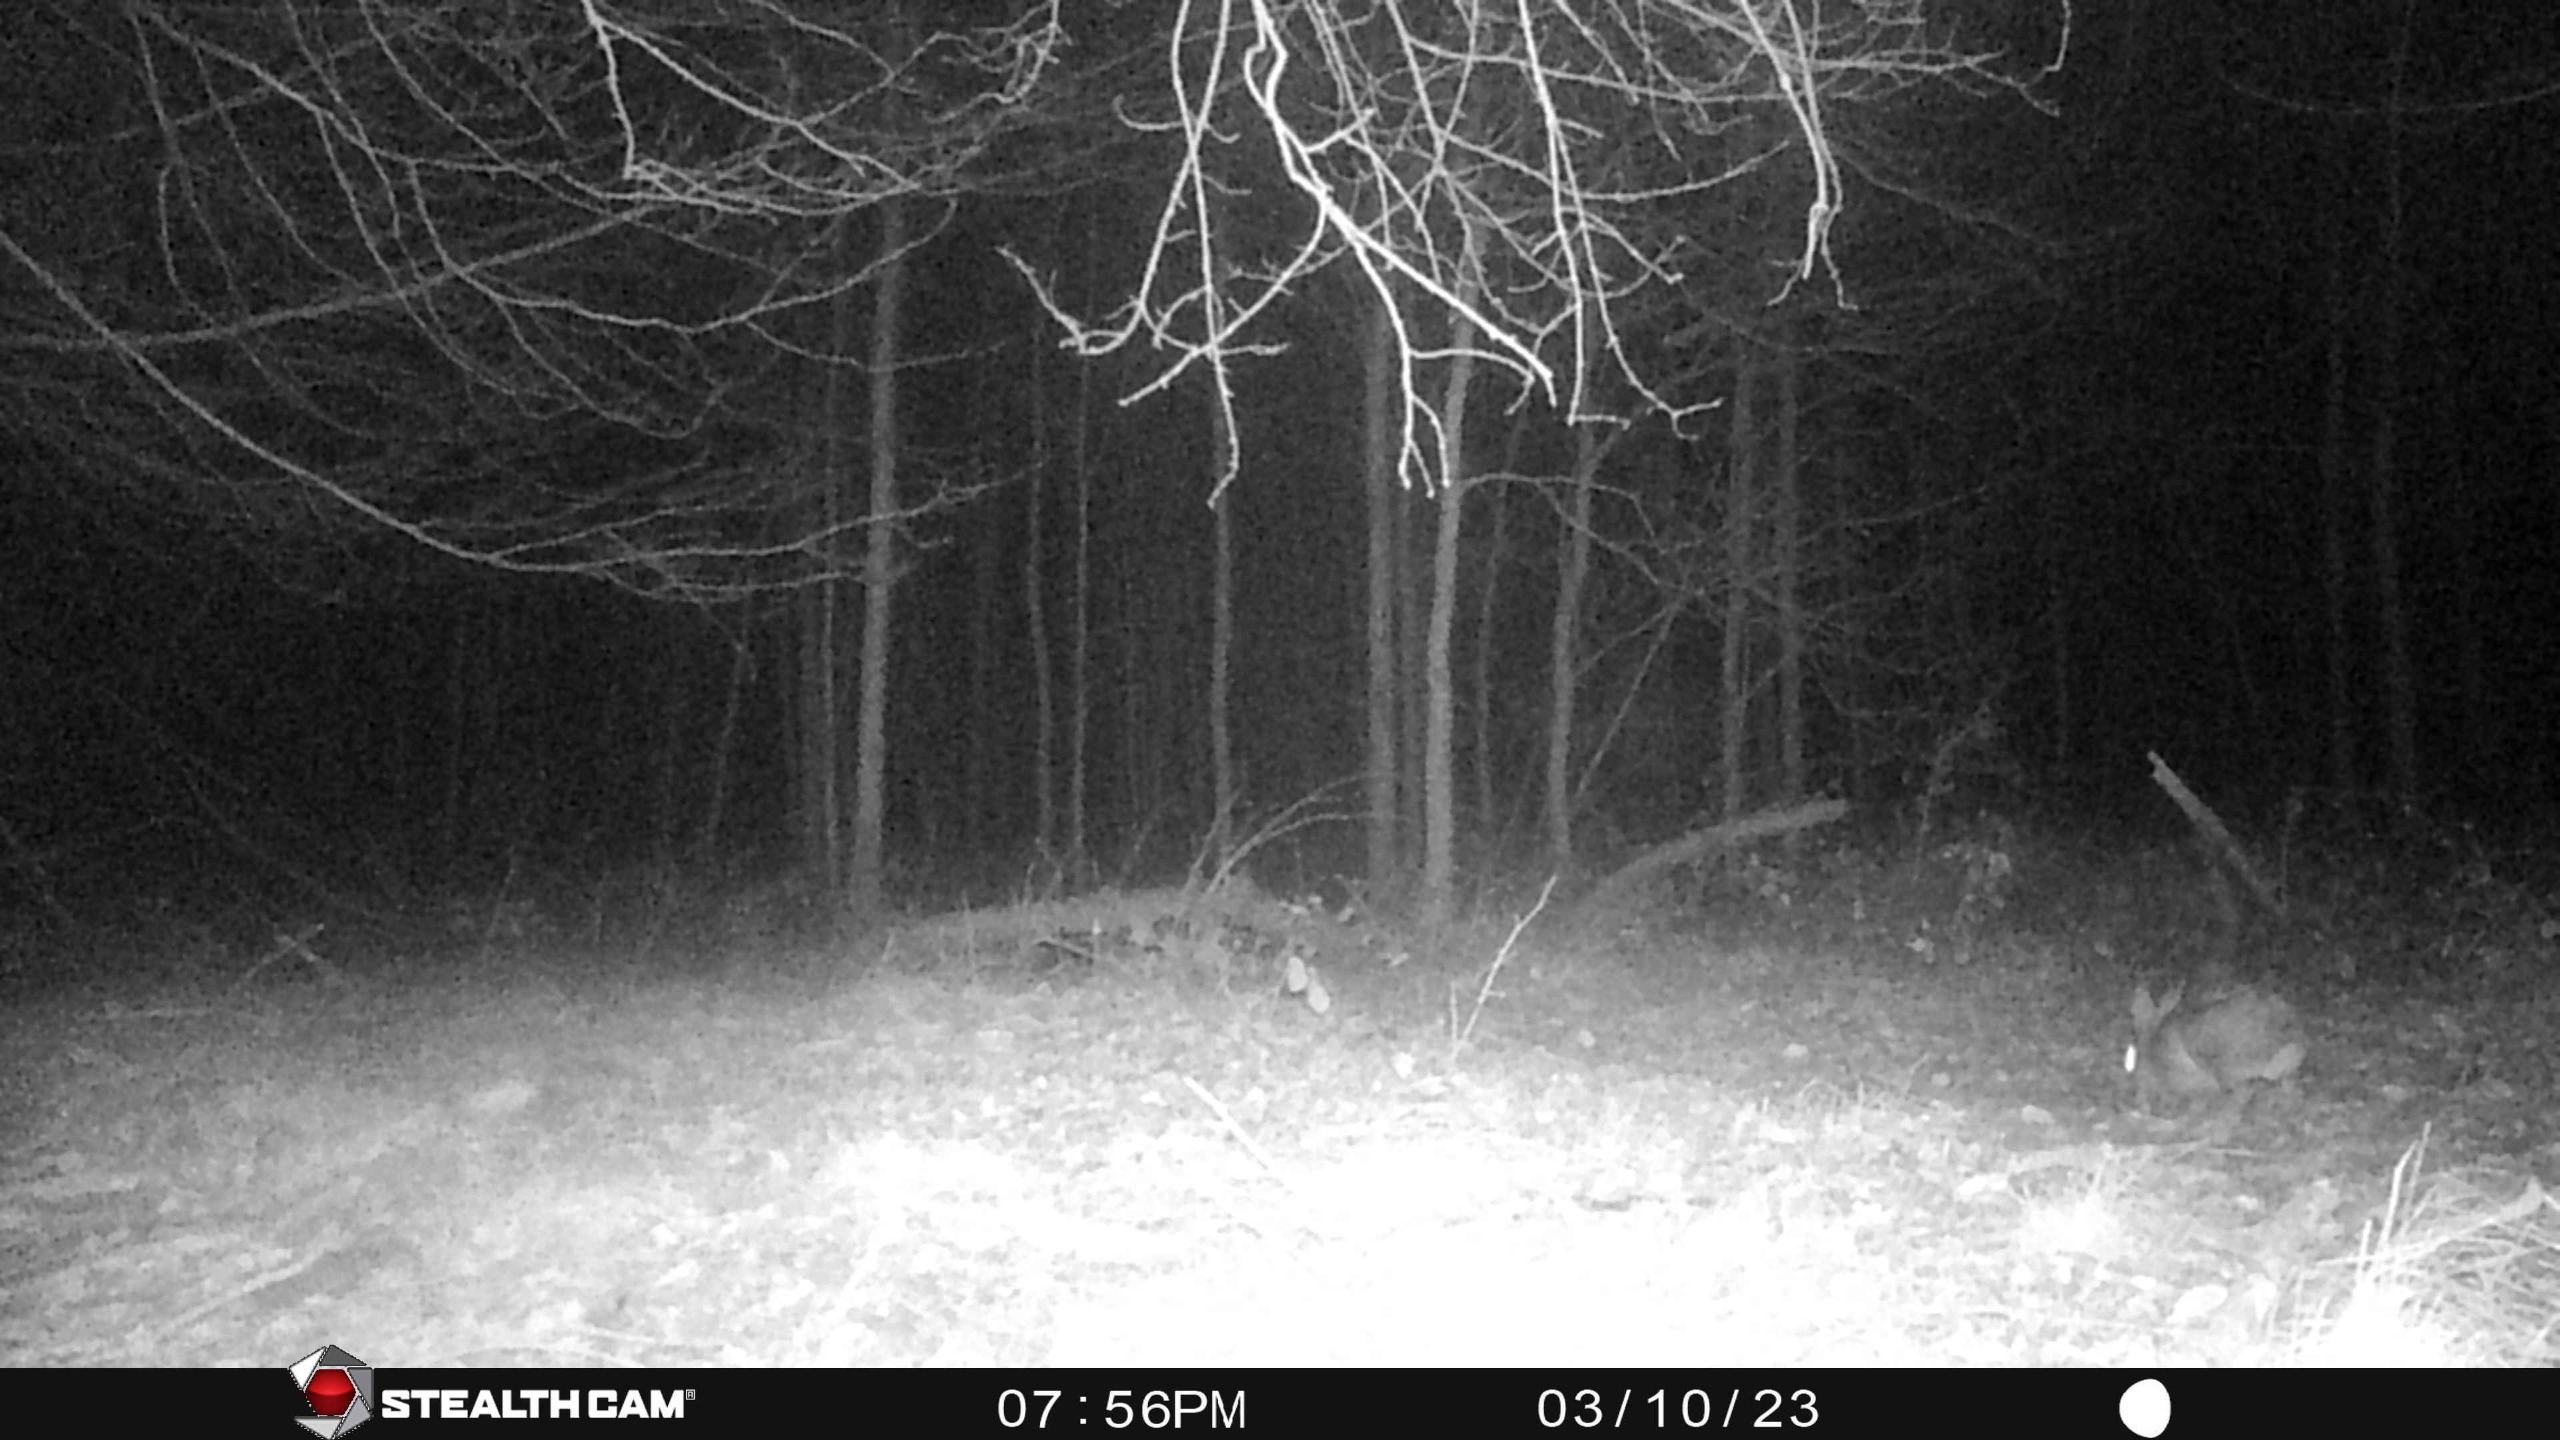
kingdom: Animalia
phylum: Chordata
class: Mammalia
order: Lagomorpha
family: Leporidae
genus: Lepus
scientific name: Lepus europaeus
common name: Hare
